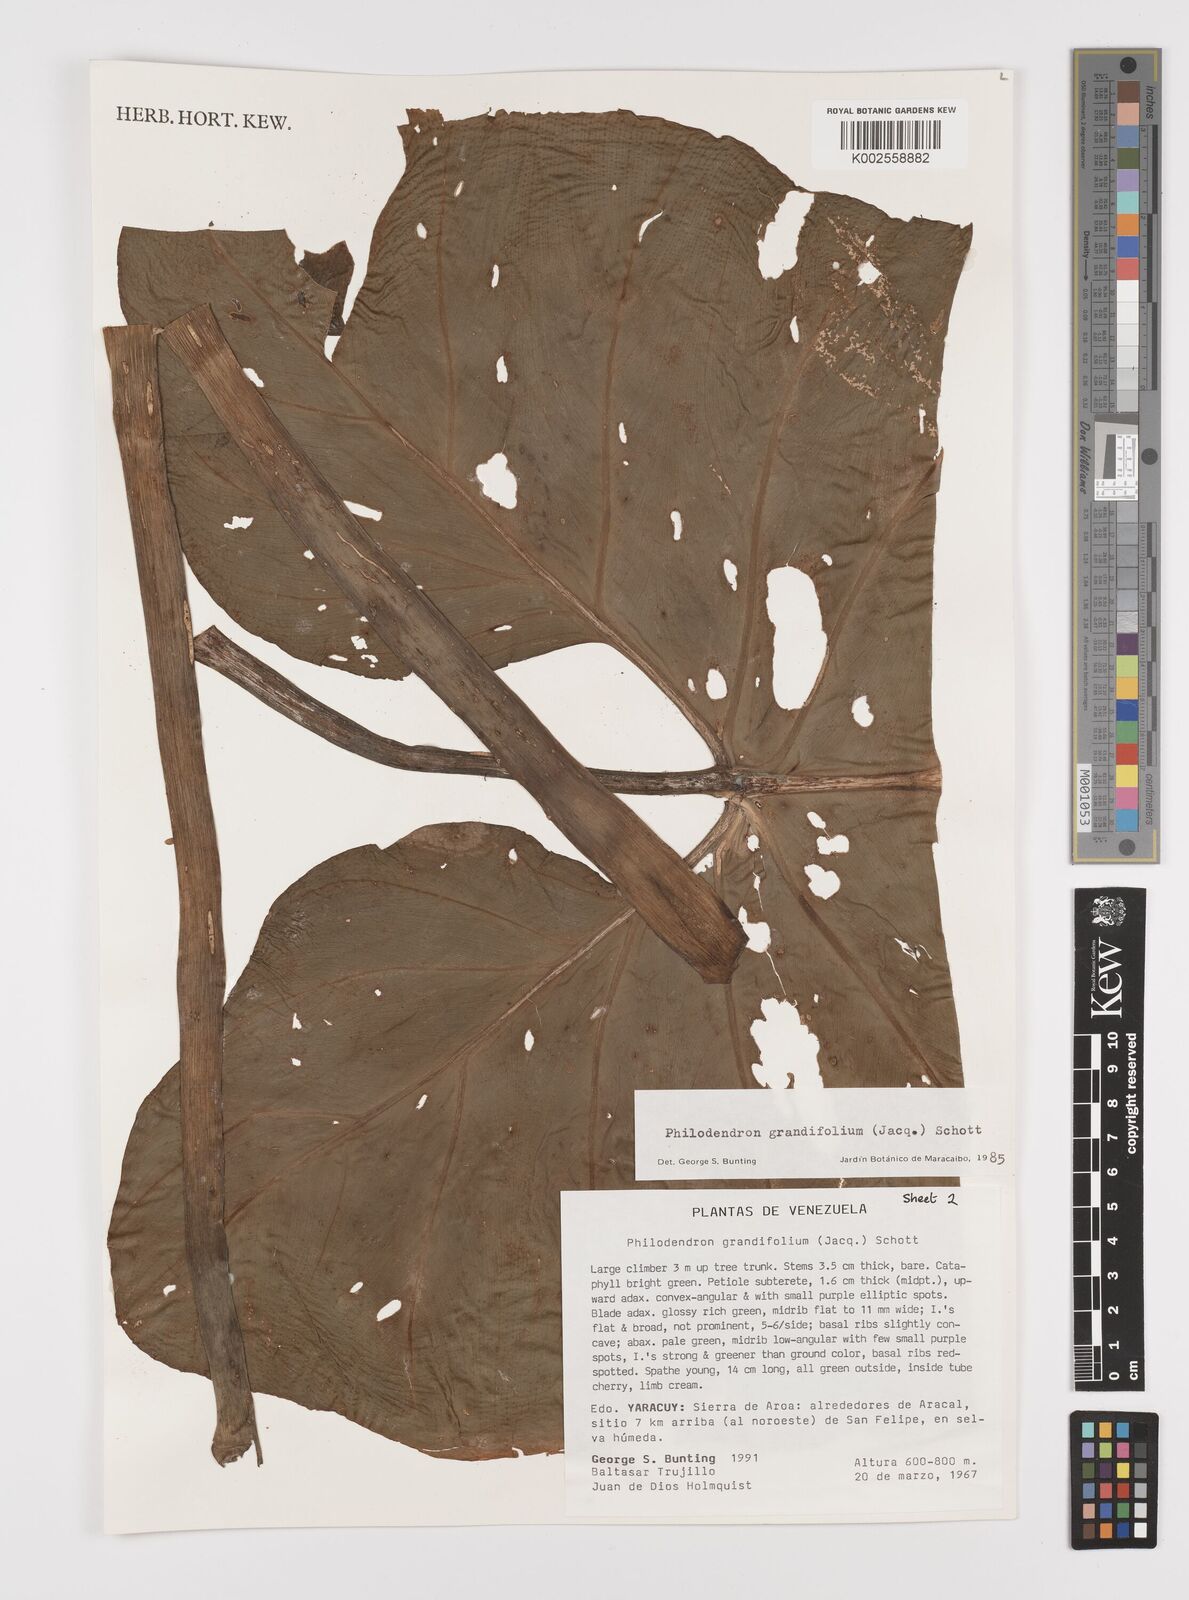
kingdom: Plantae
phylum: Tracheophyta
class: Liliopsida
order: Alismatales
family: Araceae
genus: Philodendron
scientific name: Philodendron grandifolium
